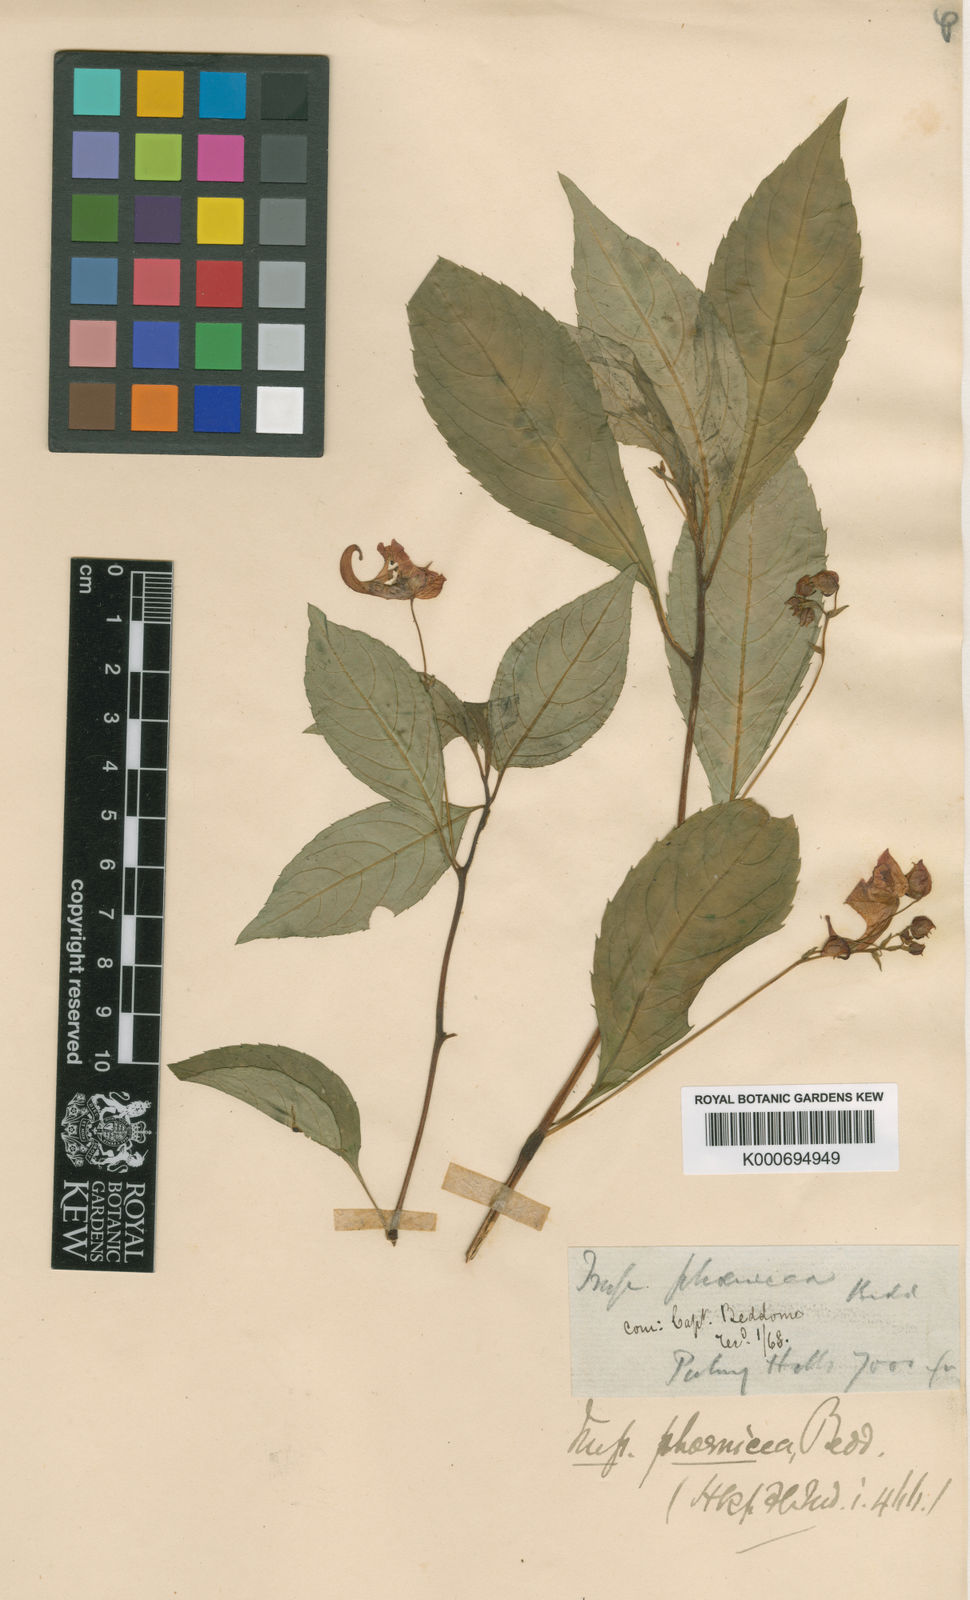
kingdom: Plantae
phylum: Tracheophyta
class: Magnoliopsida
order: Ericales
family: Balsaminaceae
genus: Impatiens
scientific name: Impatiens phoenicea
